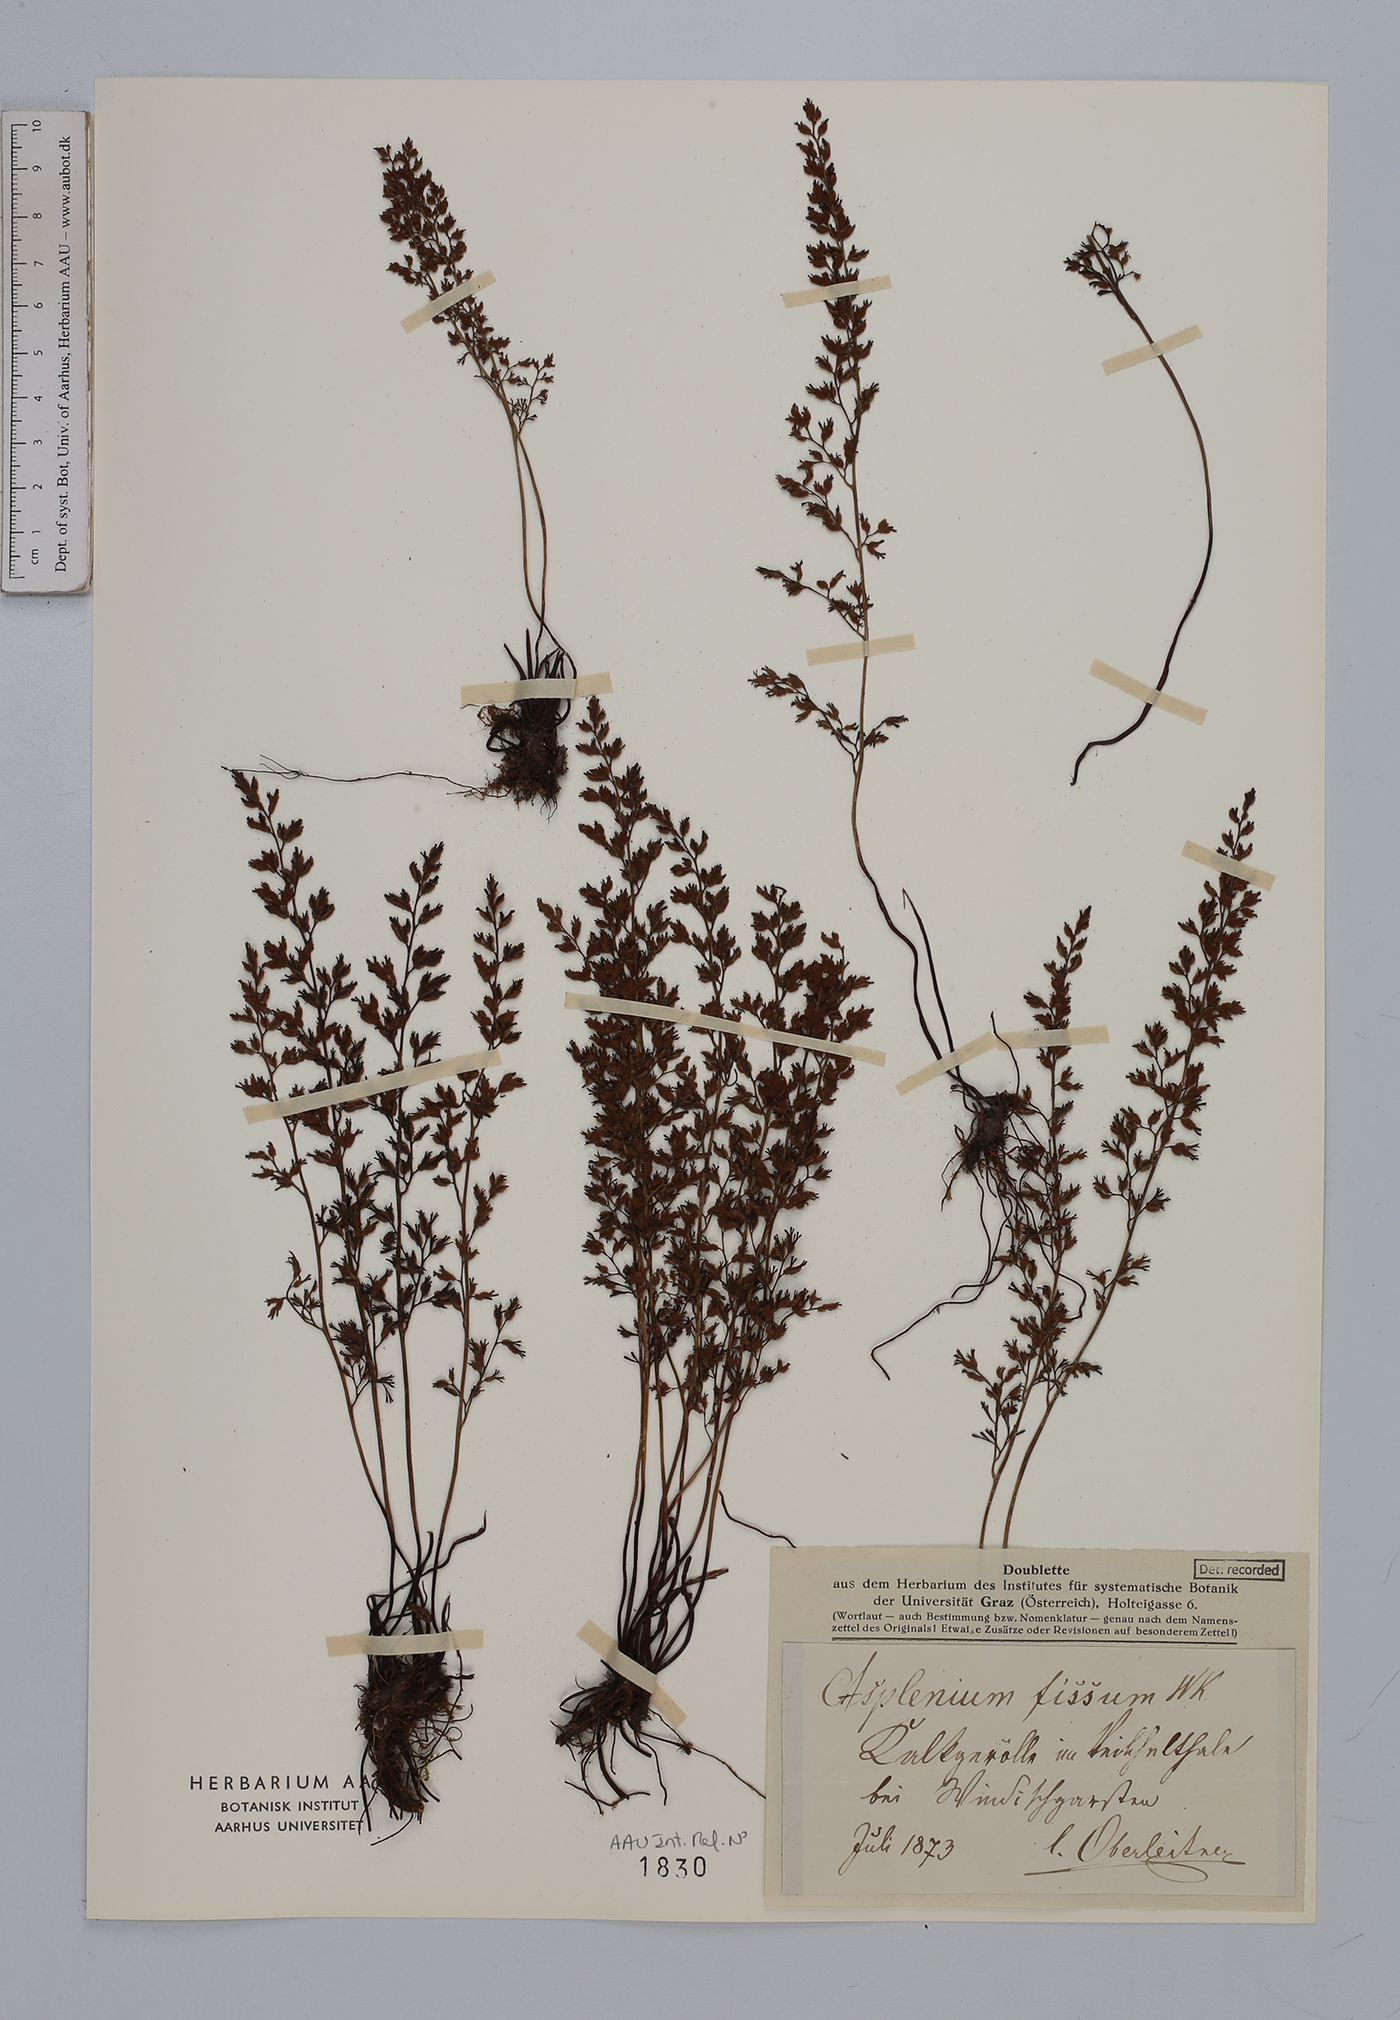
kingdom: Plantae
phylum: Tracheophyta
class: Polypodiopsida
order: Polypodiales
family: Aspleniaceae
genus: Asplenium
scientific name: Asplenium fissum
